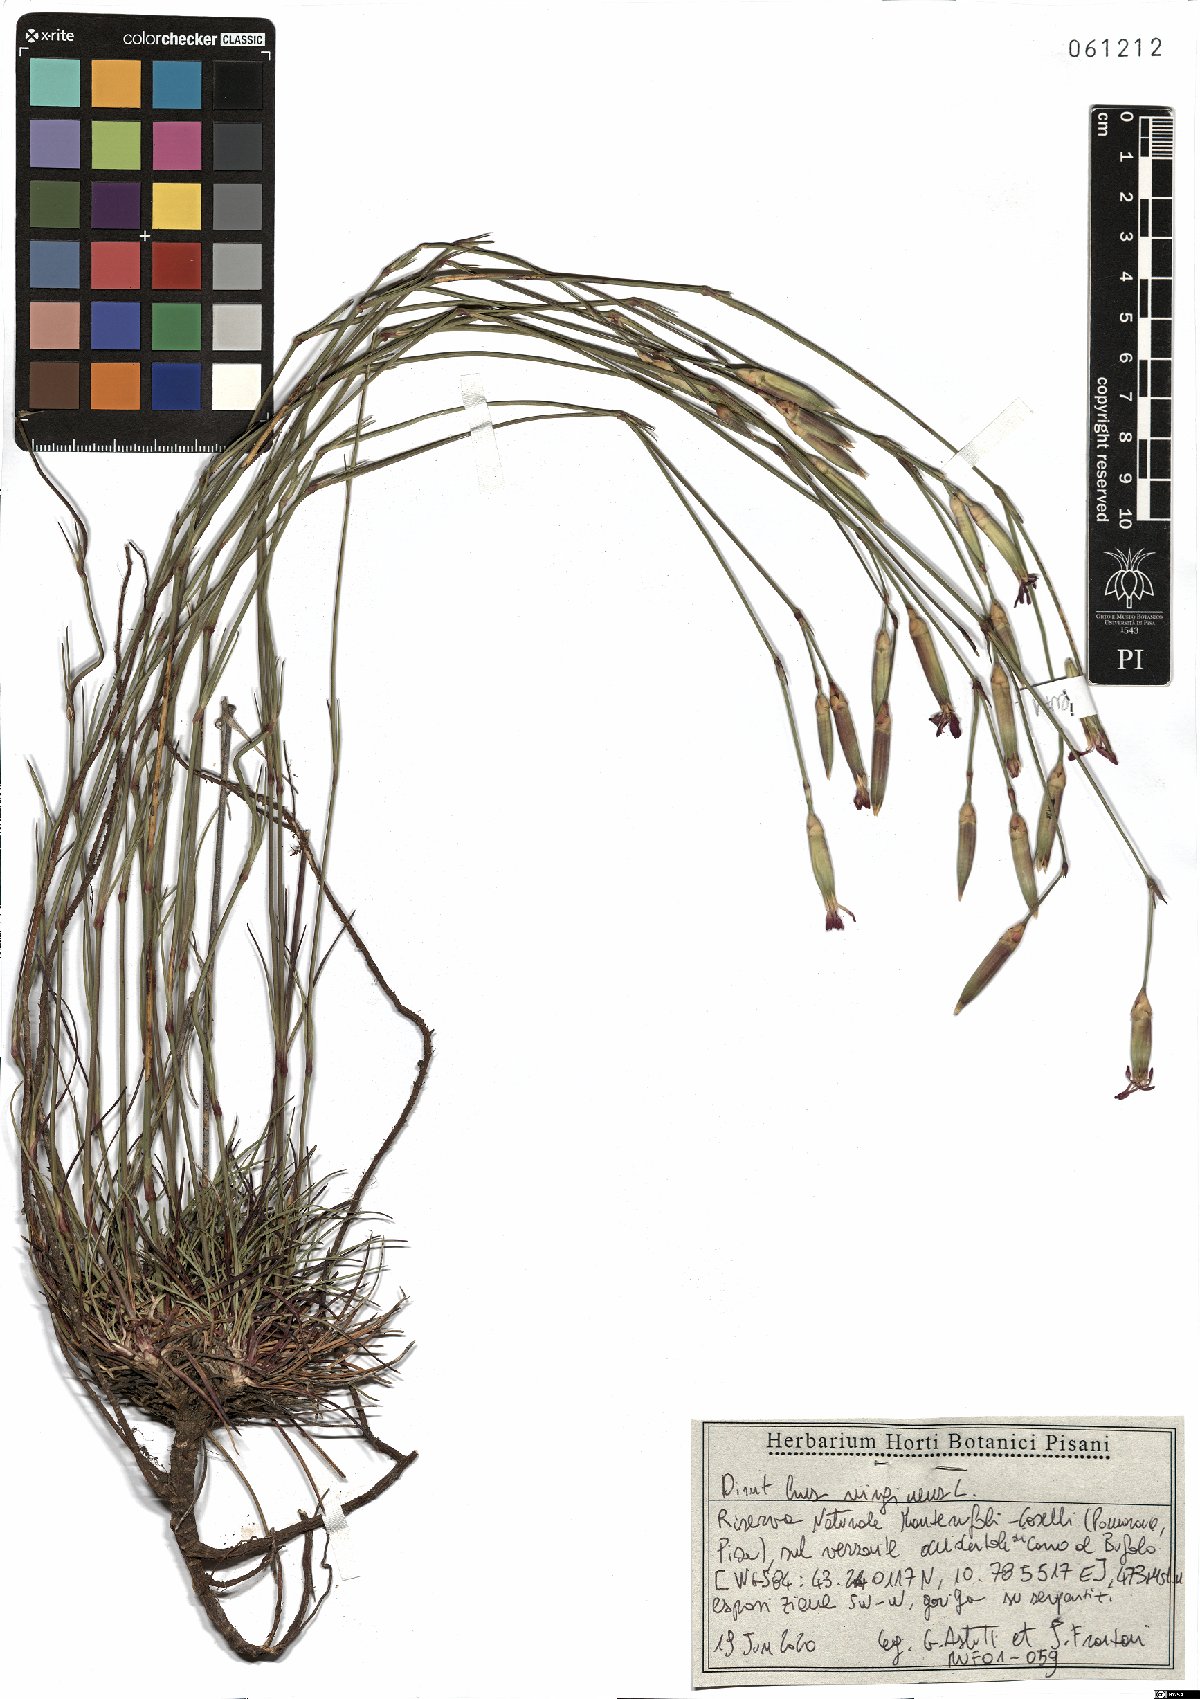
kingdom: Plantae
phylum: Tracheophyta
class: Magnoliopsida
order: Caryophyllales
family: Caryophyllaceae
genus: Dianthus
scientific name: Dianthus virgineus
